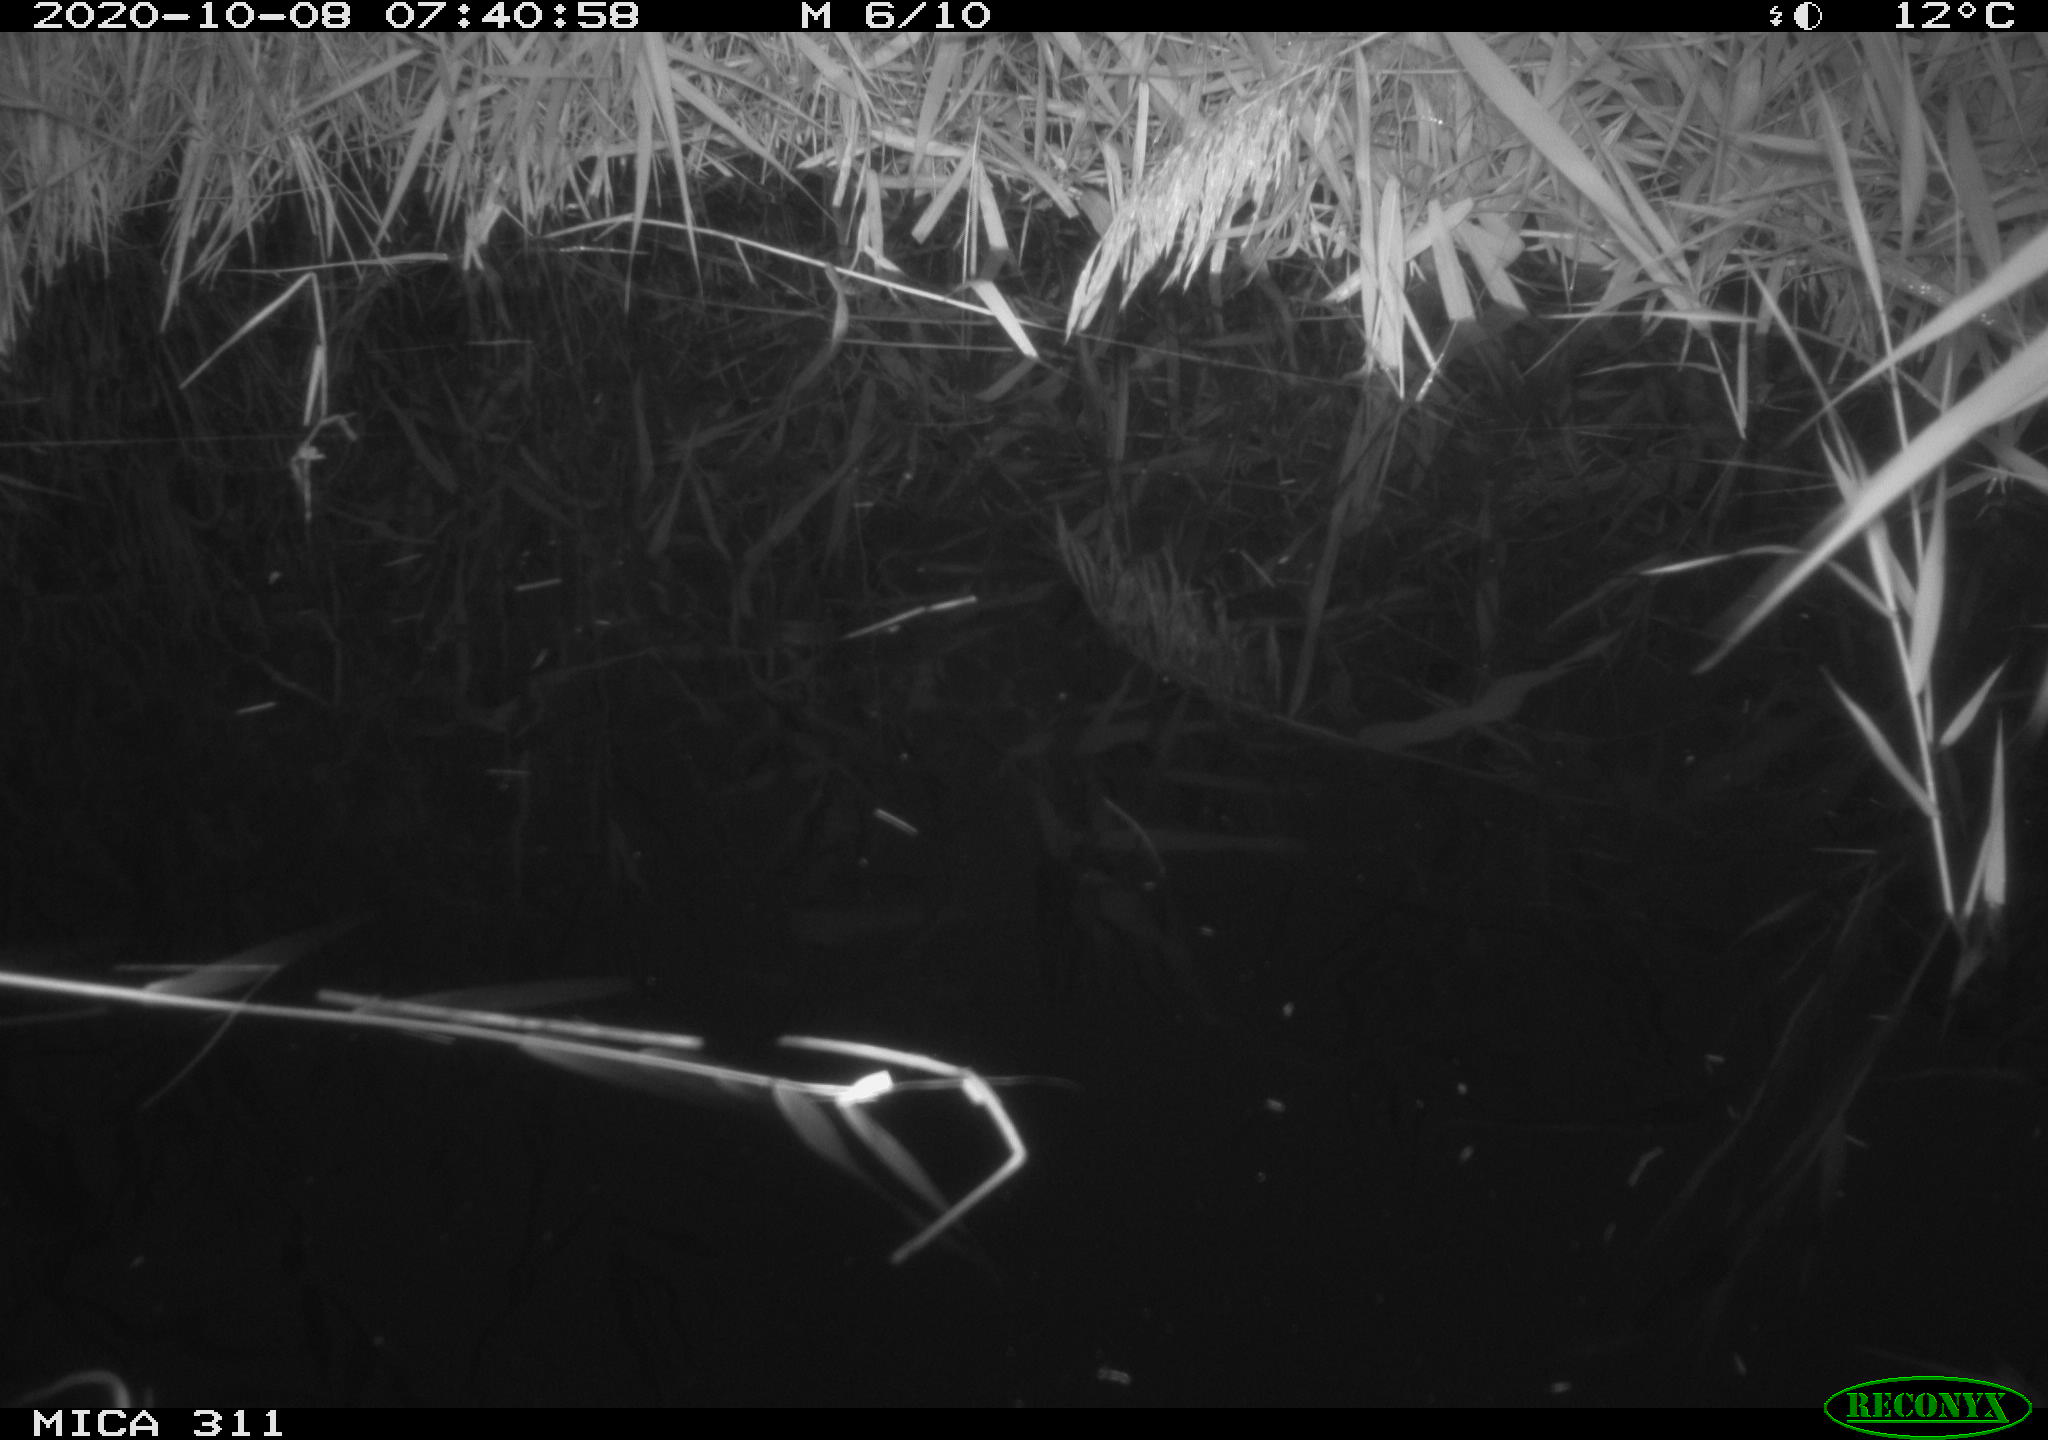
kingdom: Animalia
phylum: Chordata
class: Aves
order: Gruiformes
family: Rallidae
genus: Fulica
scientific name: Fulica atra
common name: Eurasian coot
